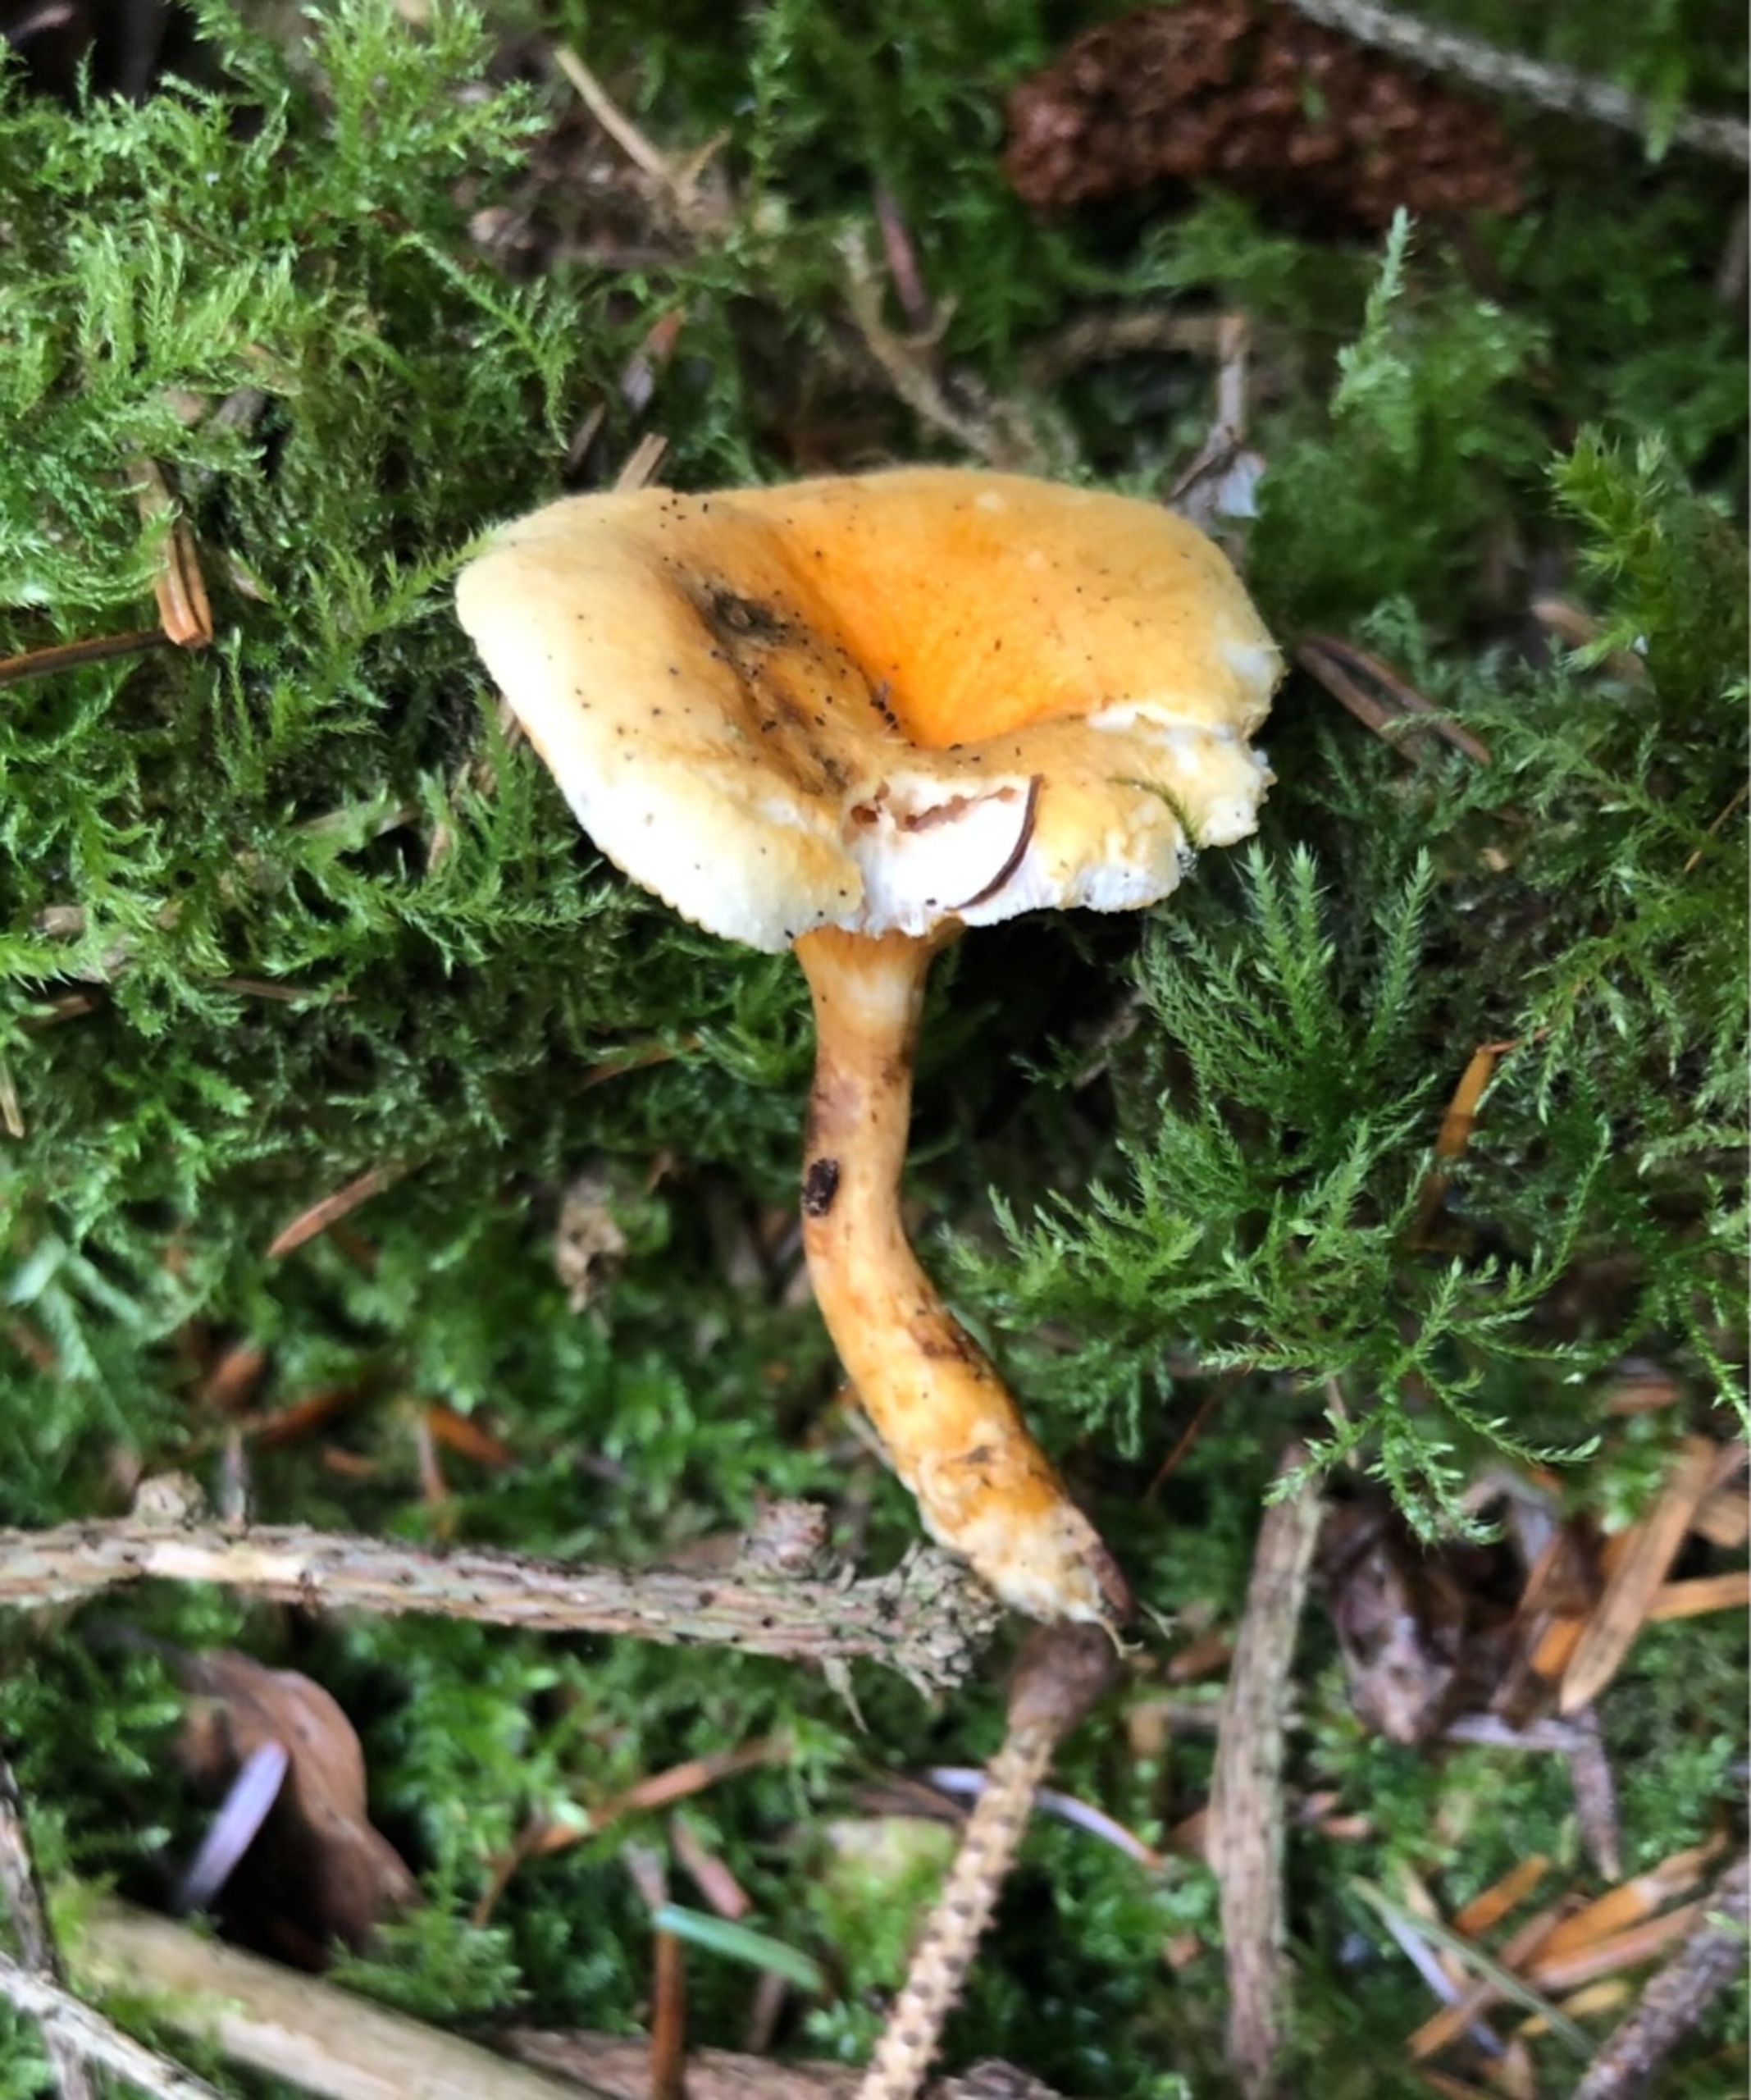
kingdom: Fungi
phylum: Basidiomycota
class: Agaricomycetes
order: Boletales
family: Hygrophoropsidaceae
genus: Hygrophoropsis
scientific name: Hygrophoropsis aurantiaca
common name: Almindelig orangekantarel
